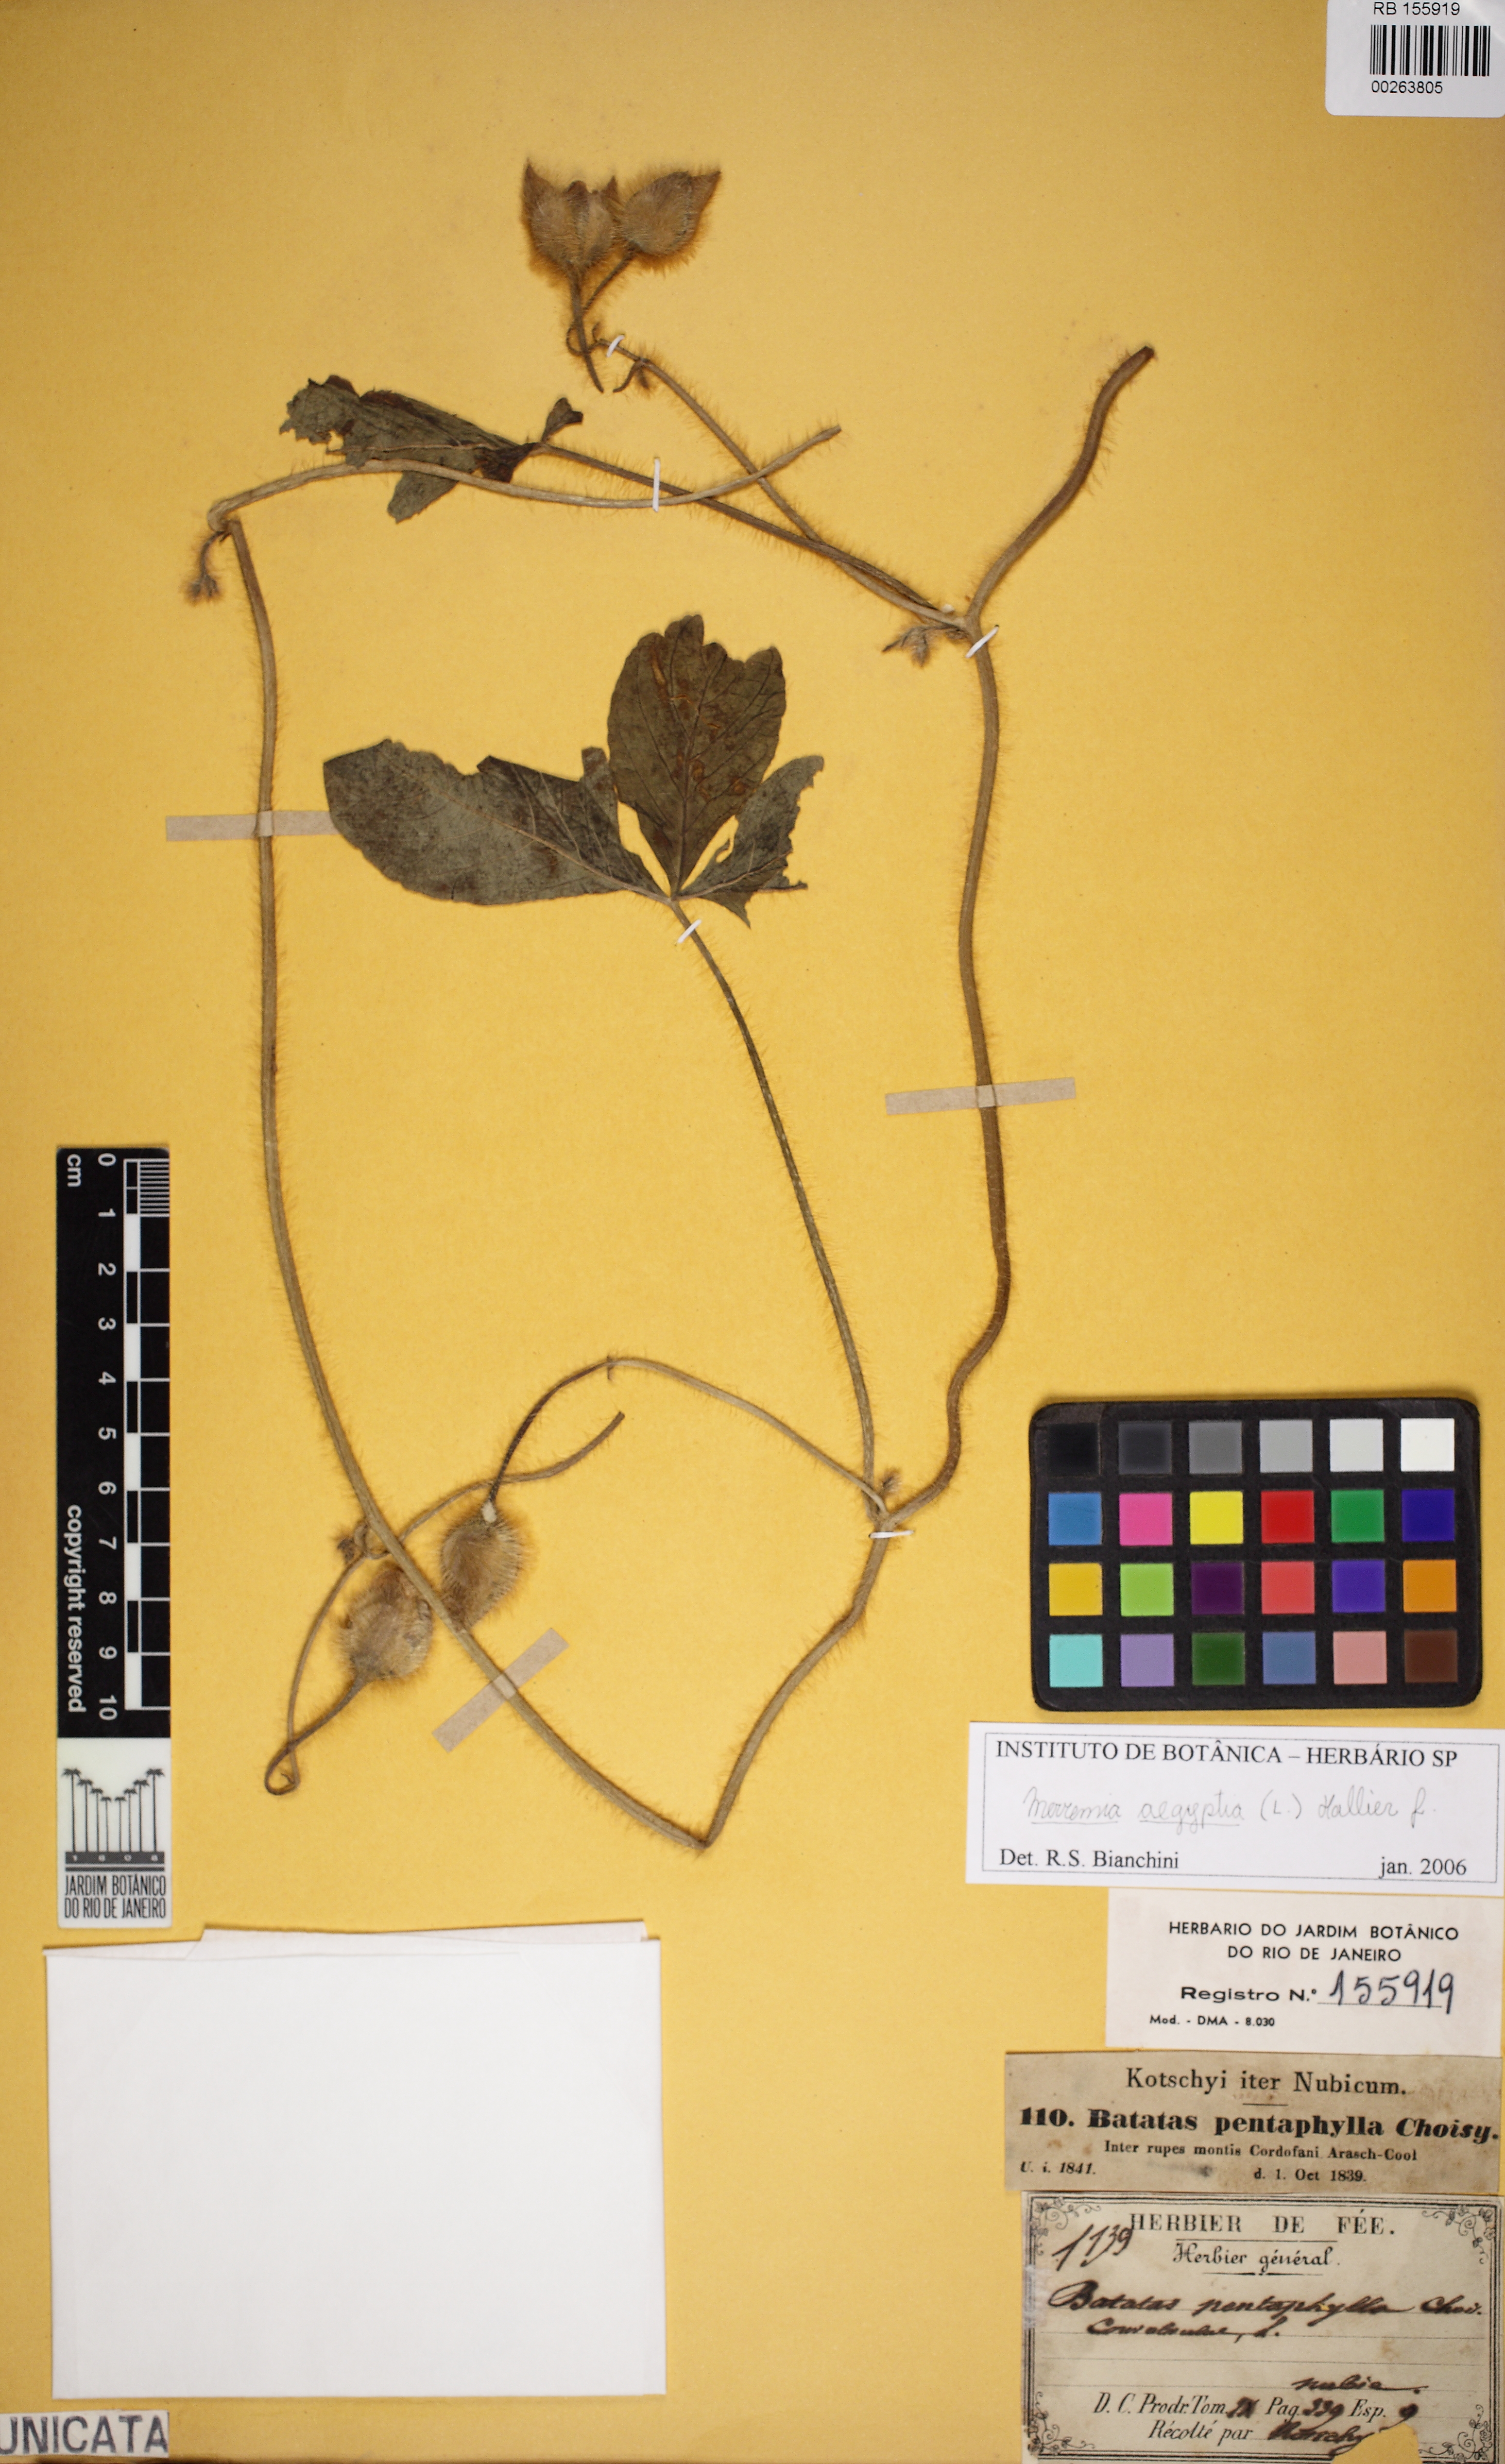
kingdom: Plantae
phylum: Tracheophyta
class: Magnoliopsida
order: Solanales
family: Convolvulaceae
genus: Distimake
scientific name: Distimake aegyptius
